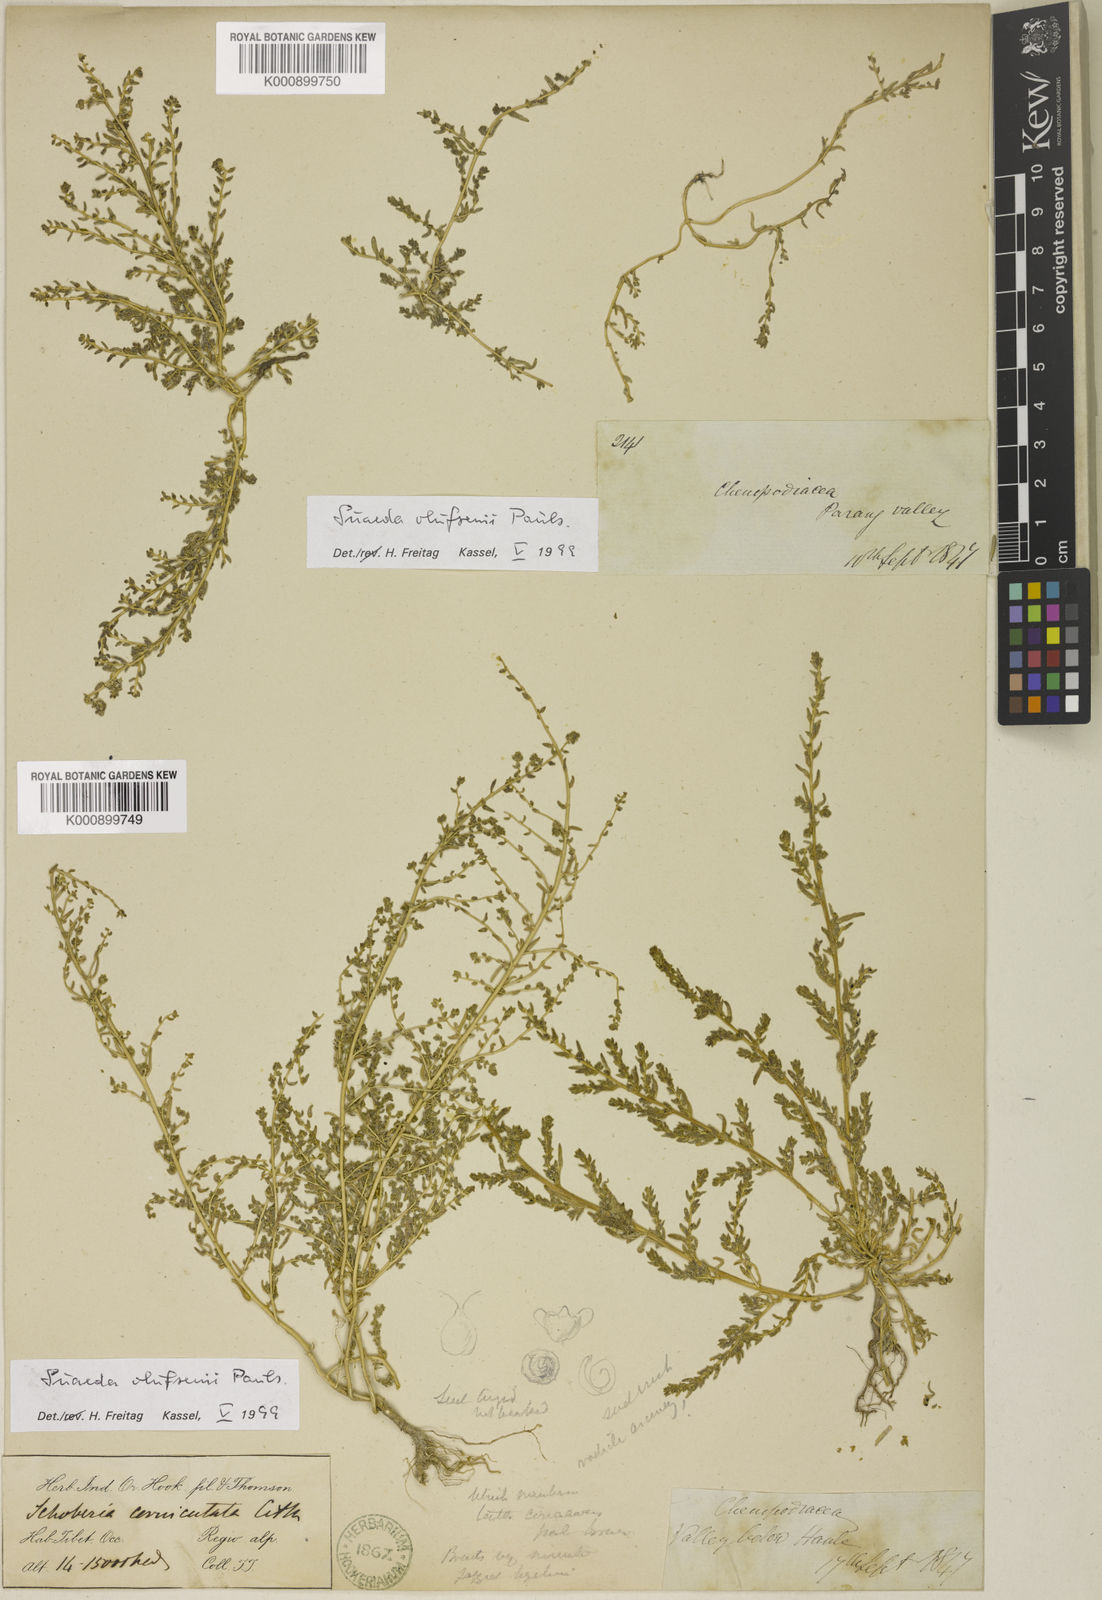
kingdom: Plantae
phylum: Tracheophyta
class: Magnoliopsida
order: Caryophyllales
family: Amaranthaceae
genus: Suaeda
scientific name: Suaeda olufsenii
